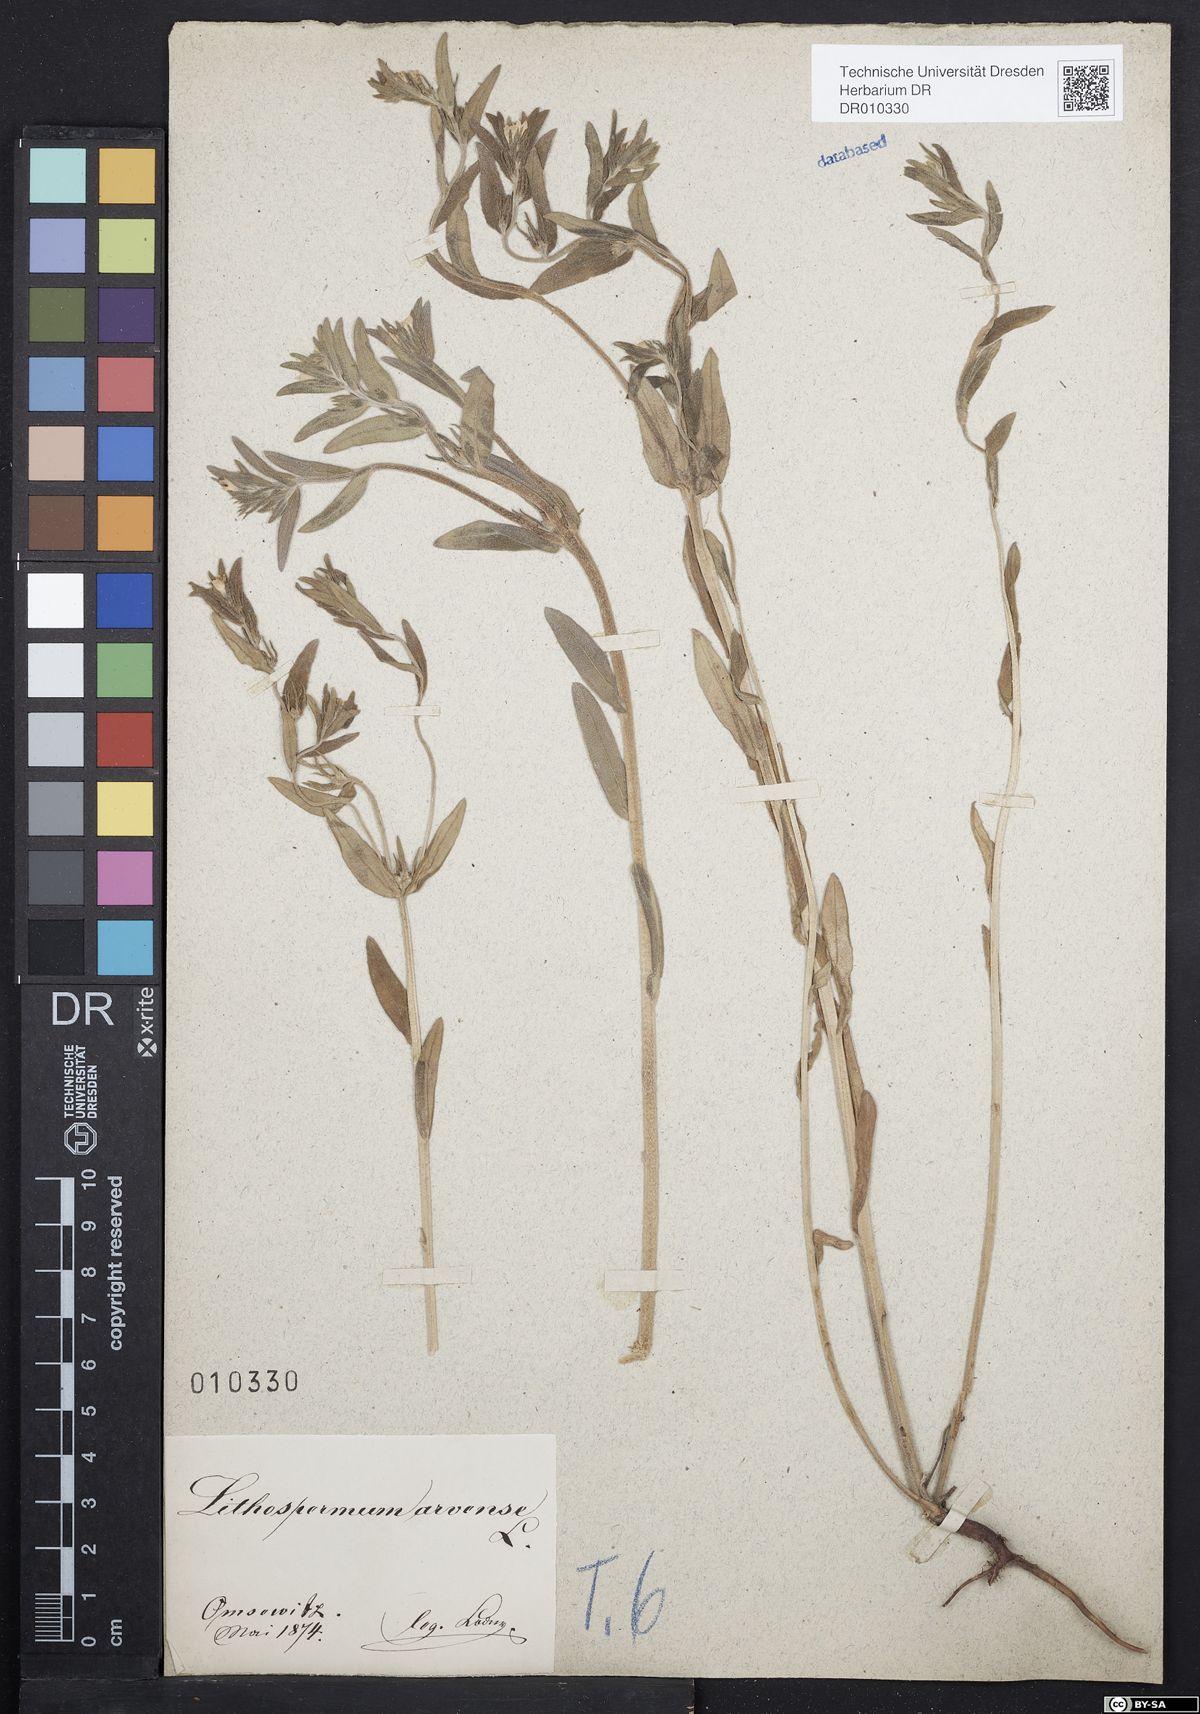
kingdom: Plantae
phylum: Tracheophyta
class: Magnoliopsida
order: Boraginales
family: Boraginaceae
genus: Buglossoides
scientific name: Buglossoides arvensis
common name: Corn gromwell
